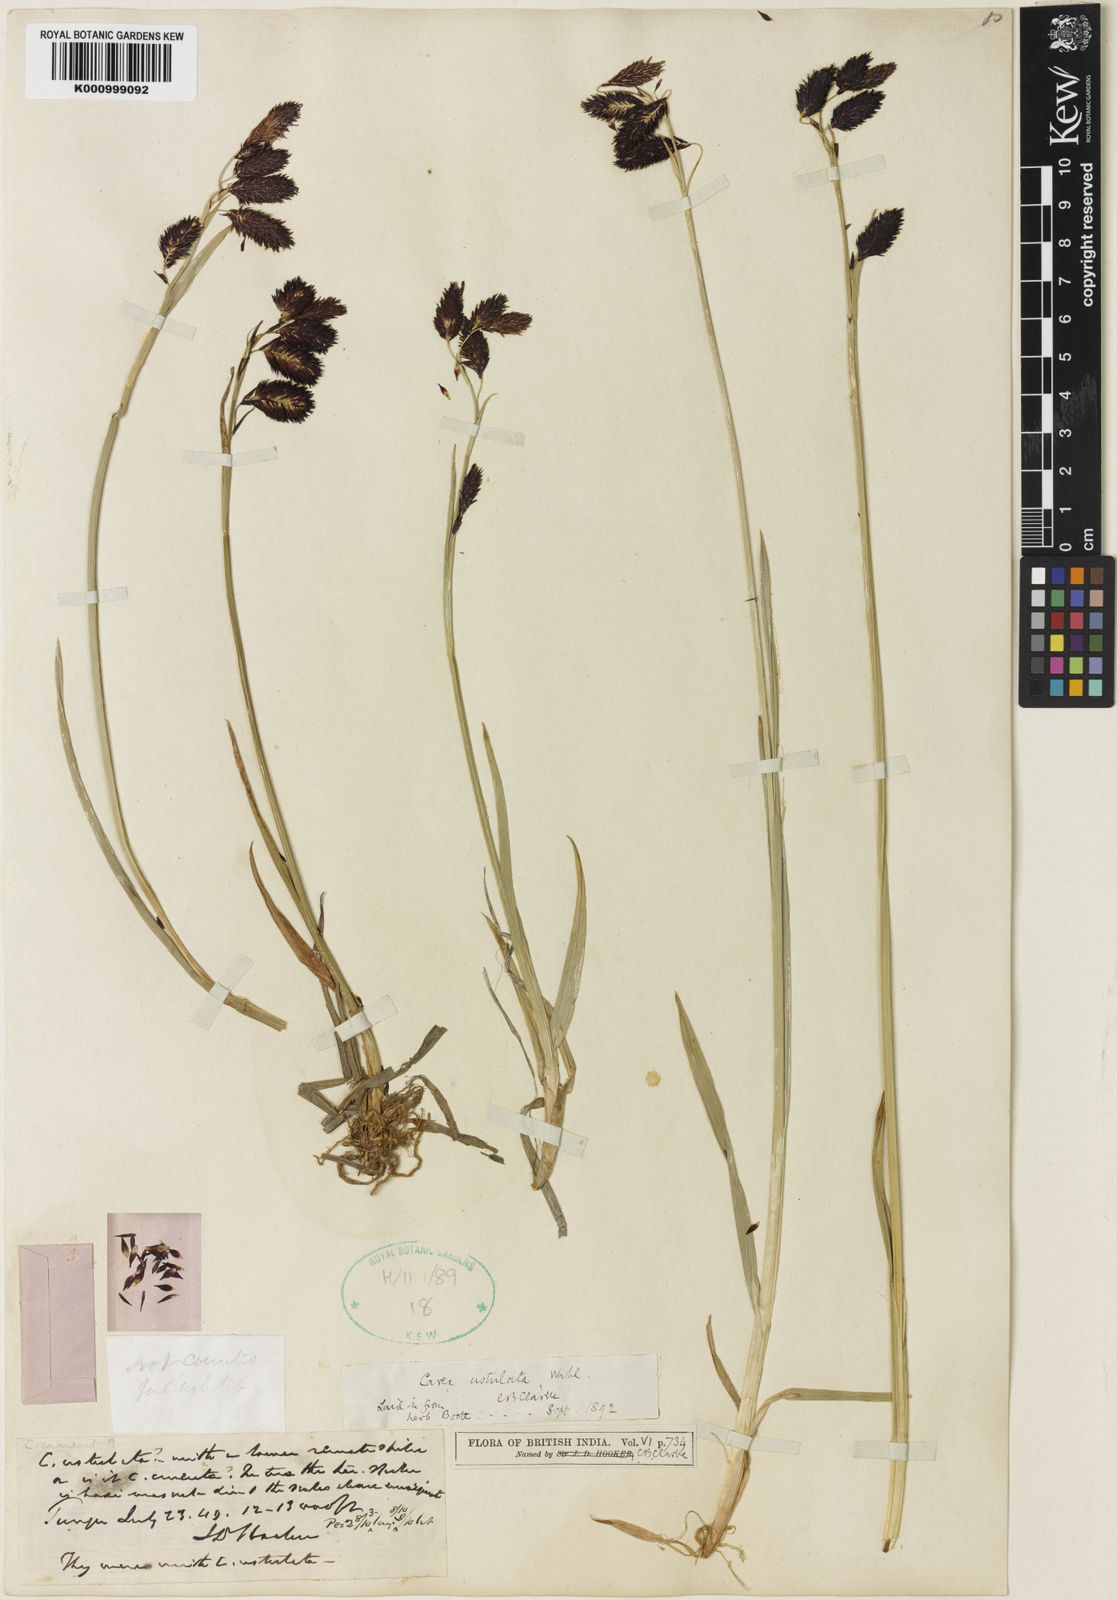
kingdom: Plantae
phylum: Tracheophyta
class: Liliopsida
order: Poales
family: Cyperaceae
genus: Carex
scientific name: Carex atrofusca
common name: Scorched alpine-sedge
